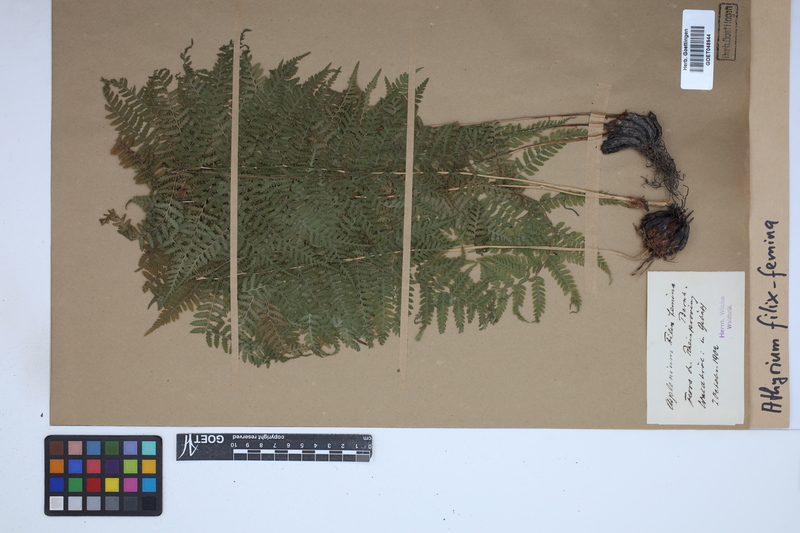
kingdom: Plantae
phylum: Tracheophyta
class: Polypodiopsida
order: Polypodiales
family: Athyriaceae
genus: Athyrium
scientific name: Athyrium filix-femina
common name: Lady fern
